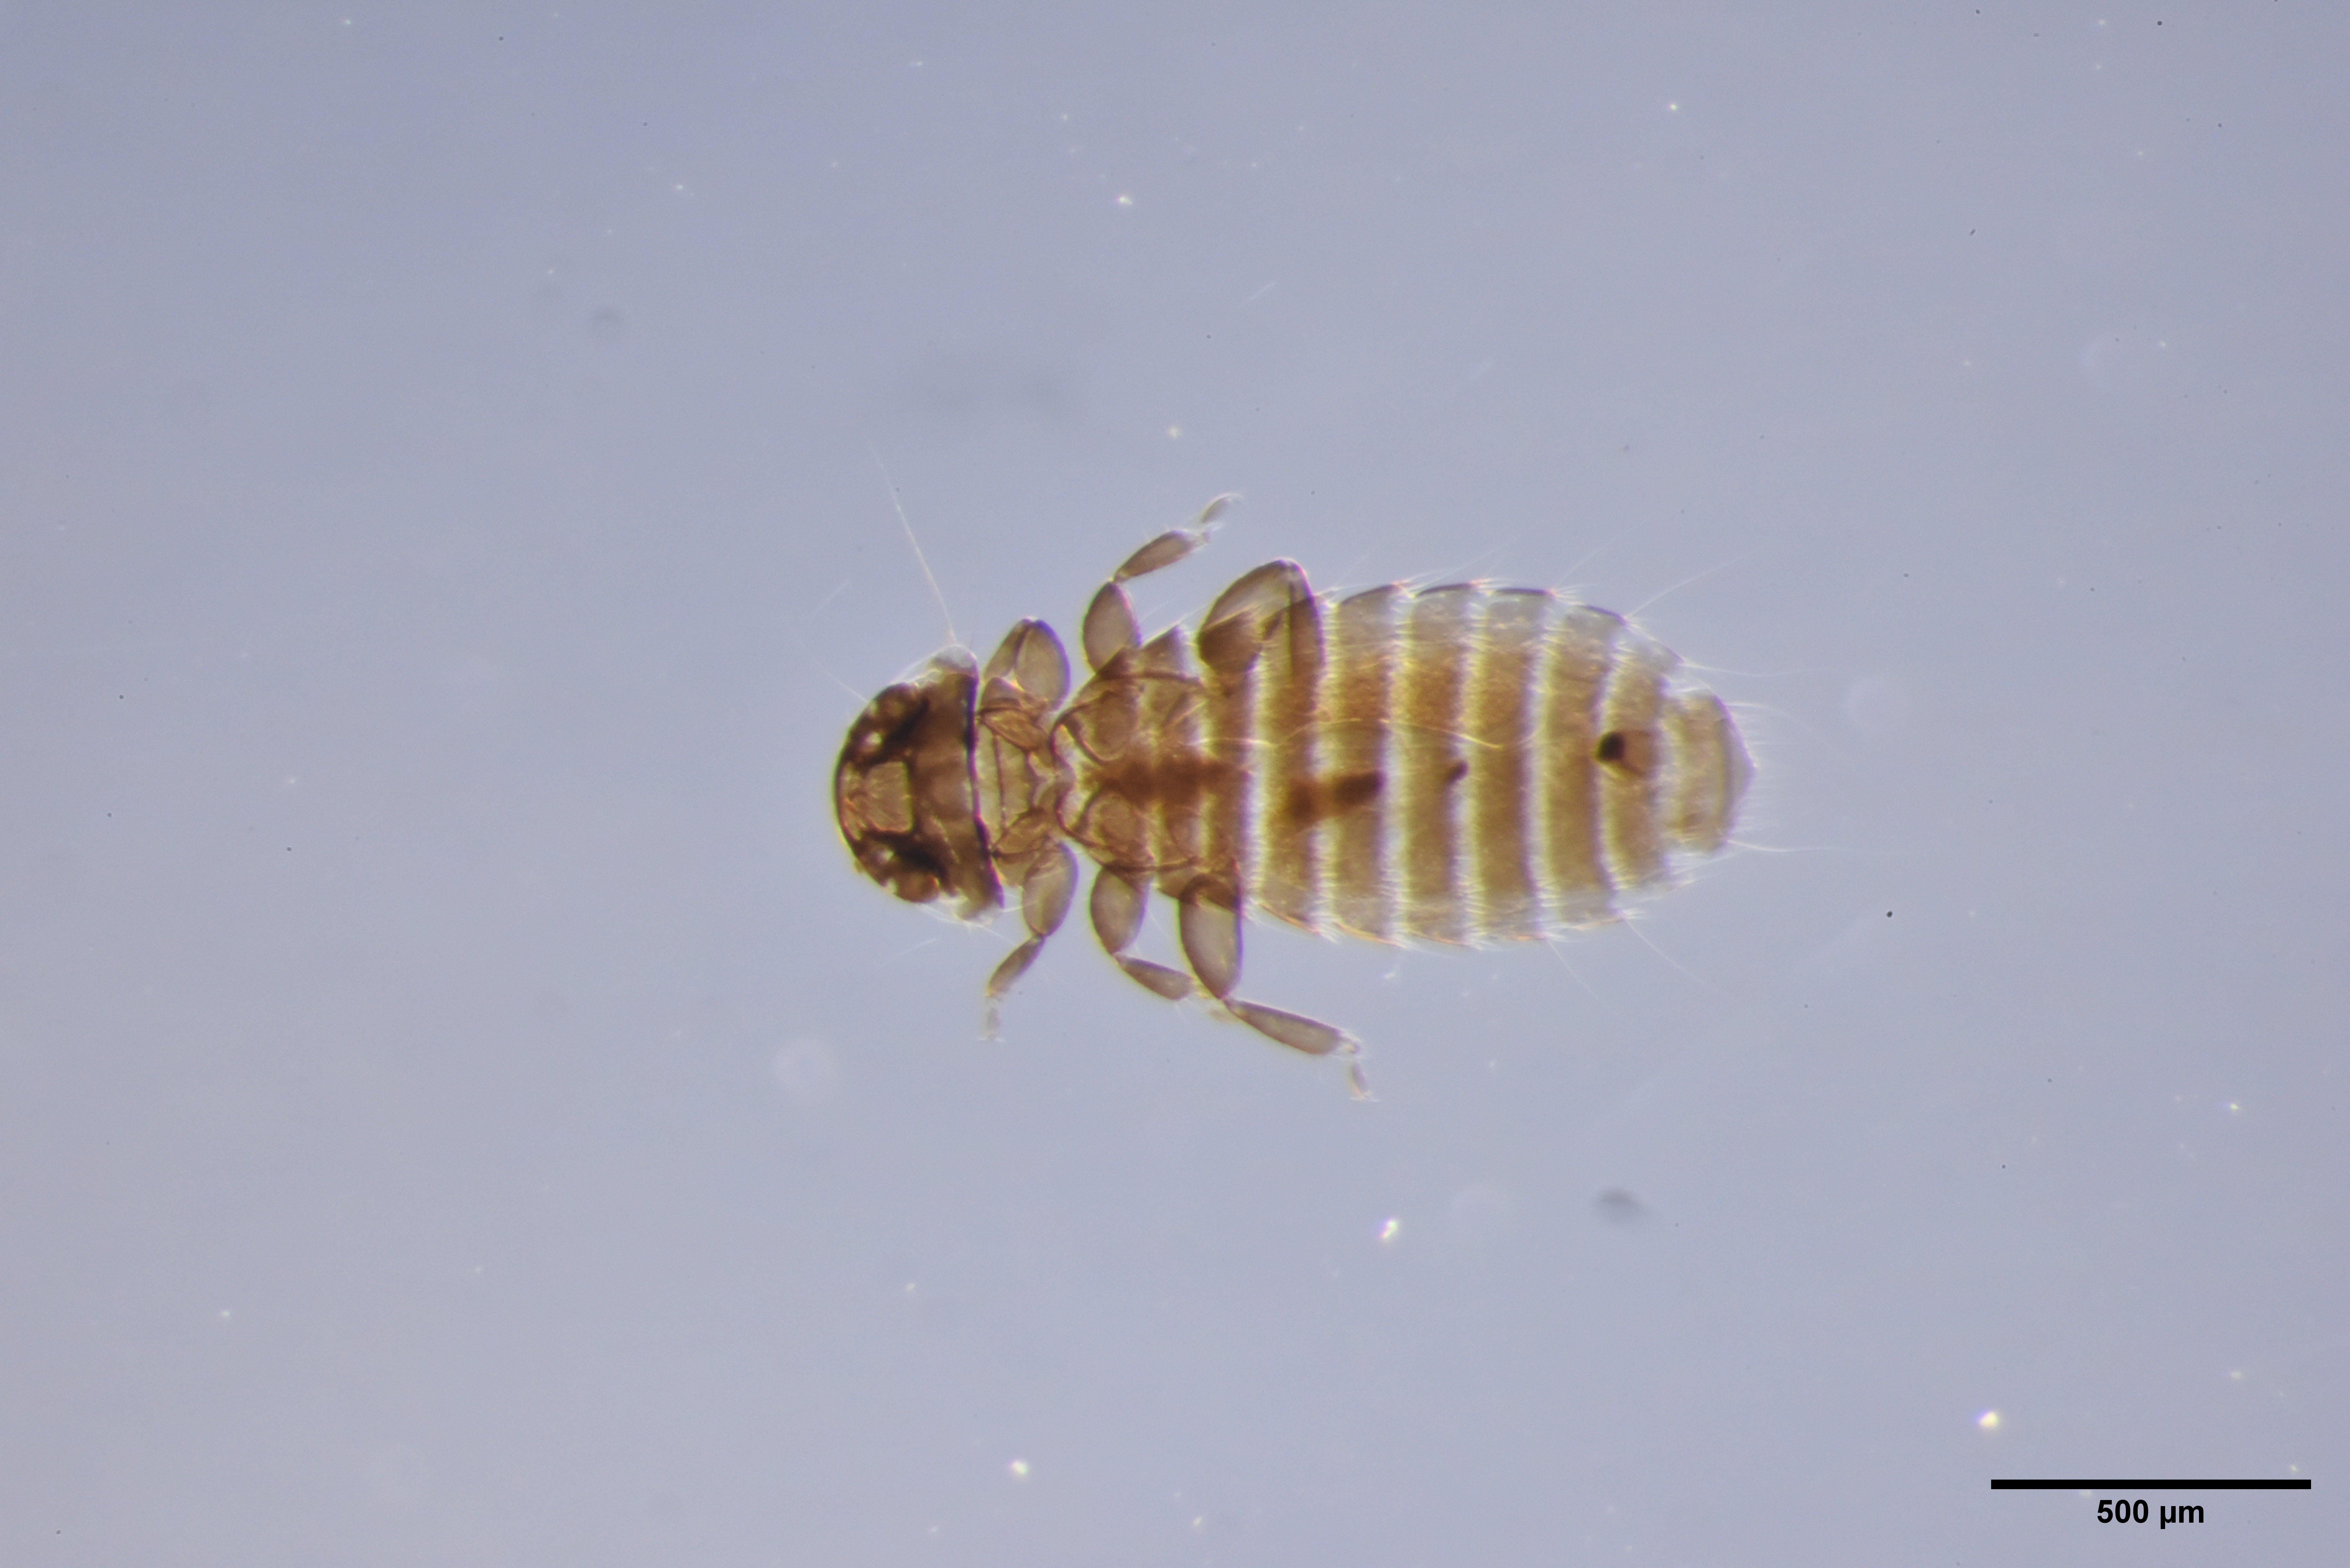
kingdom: Animalia
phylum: Arthropoda
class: Insecta
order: Psocodea
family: Menoponidae
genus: Menacanthus
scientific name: Menacanthus agilis
